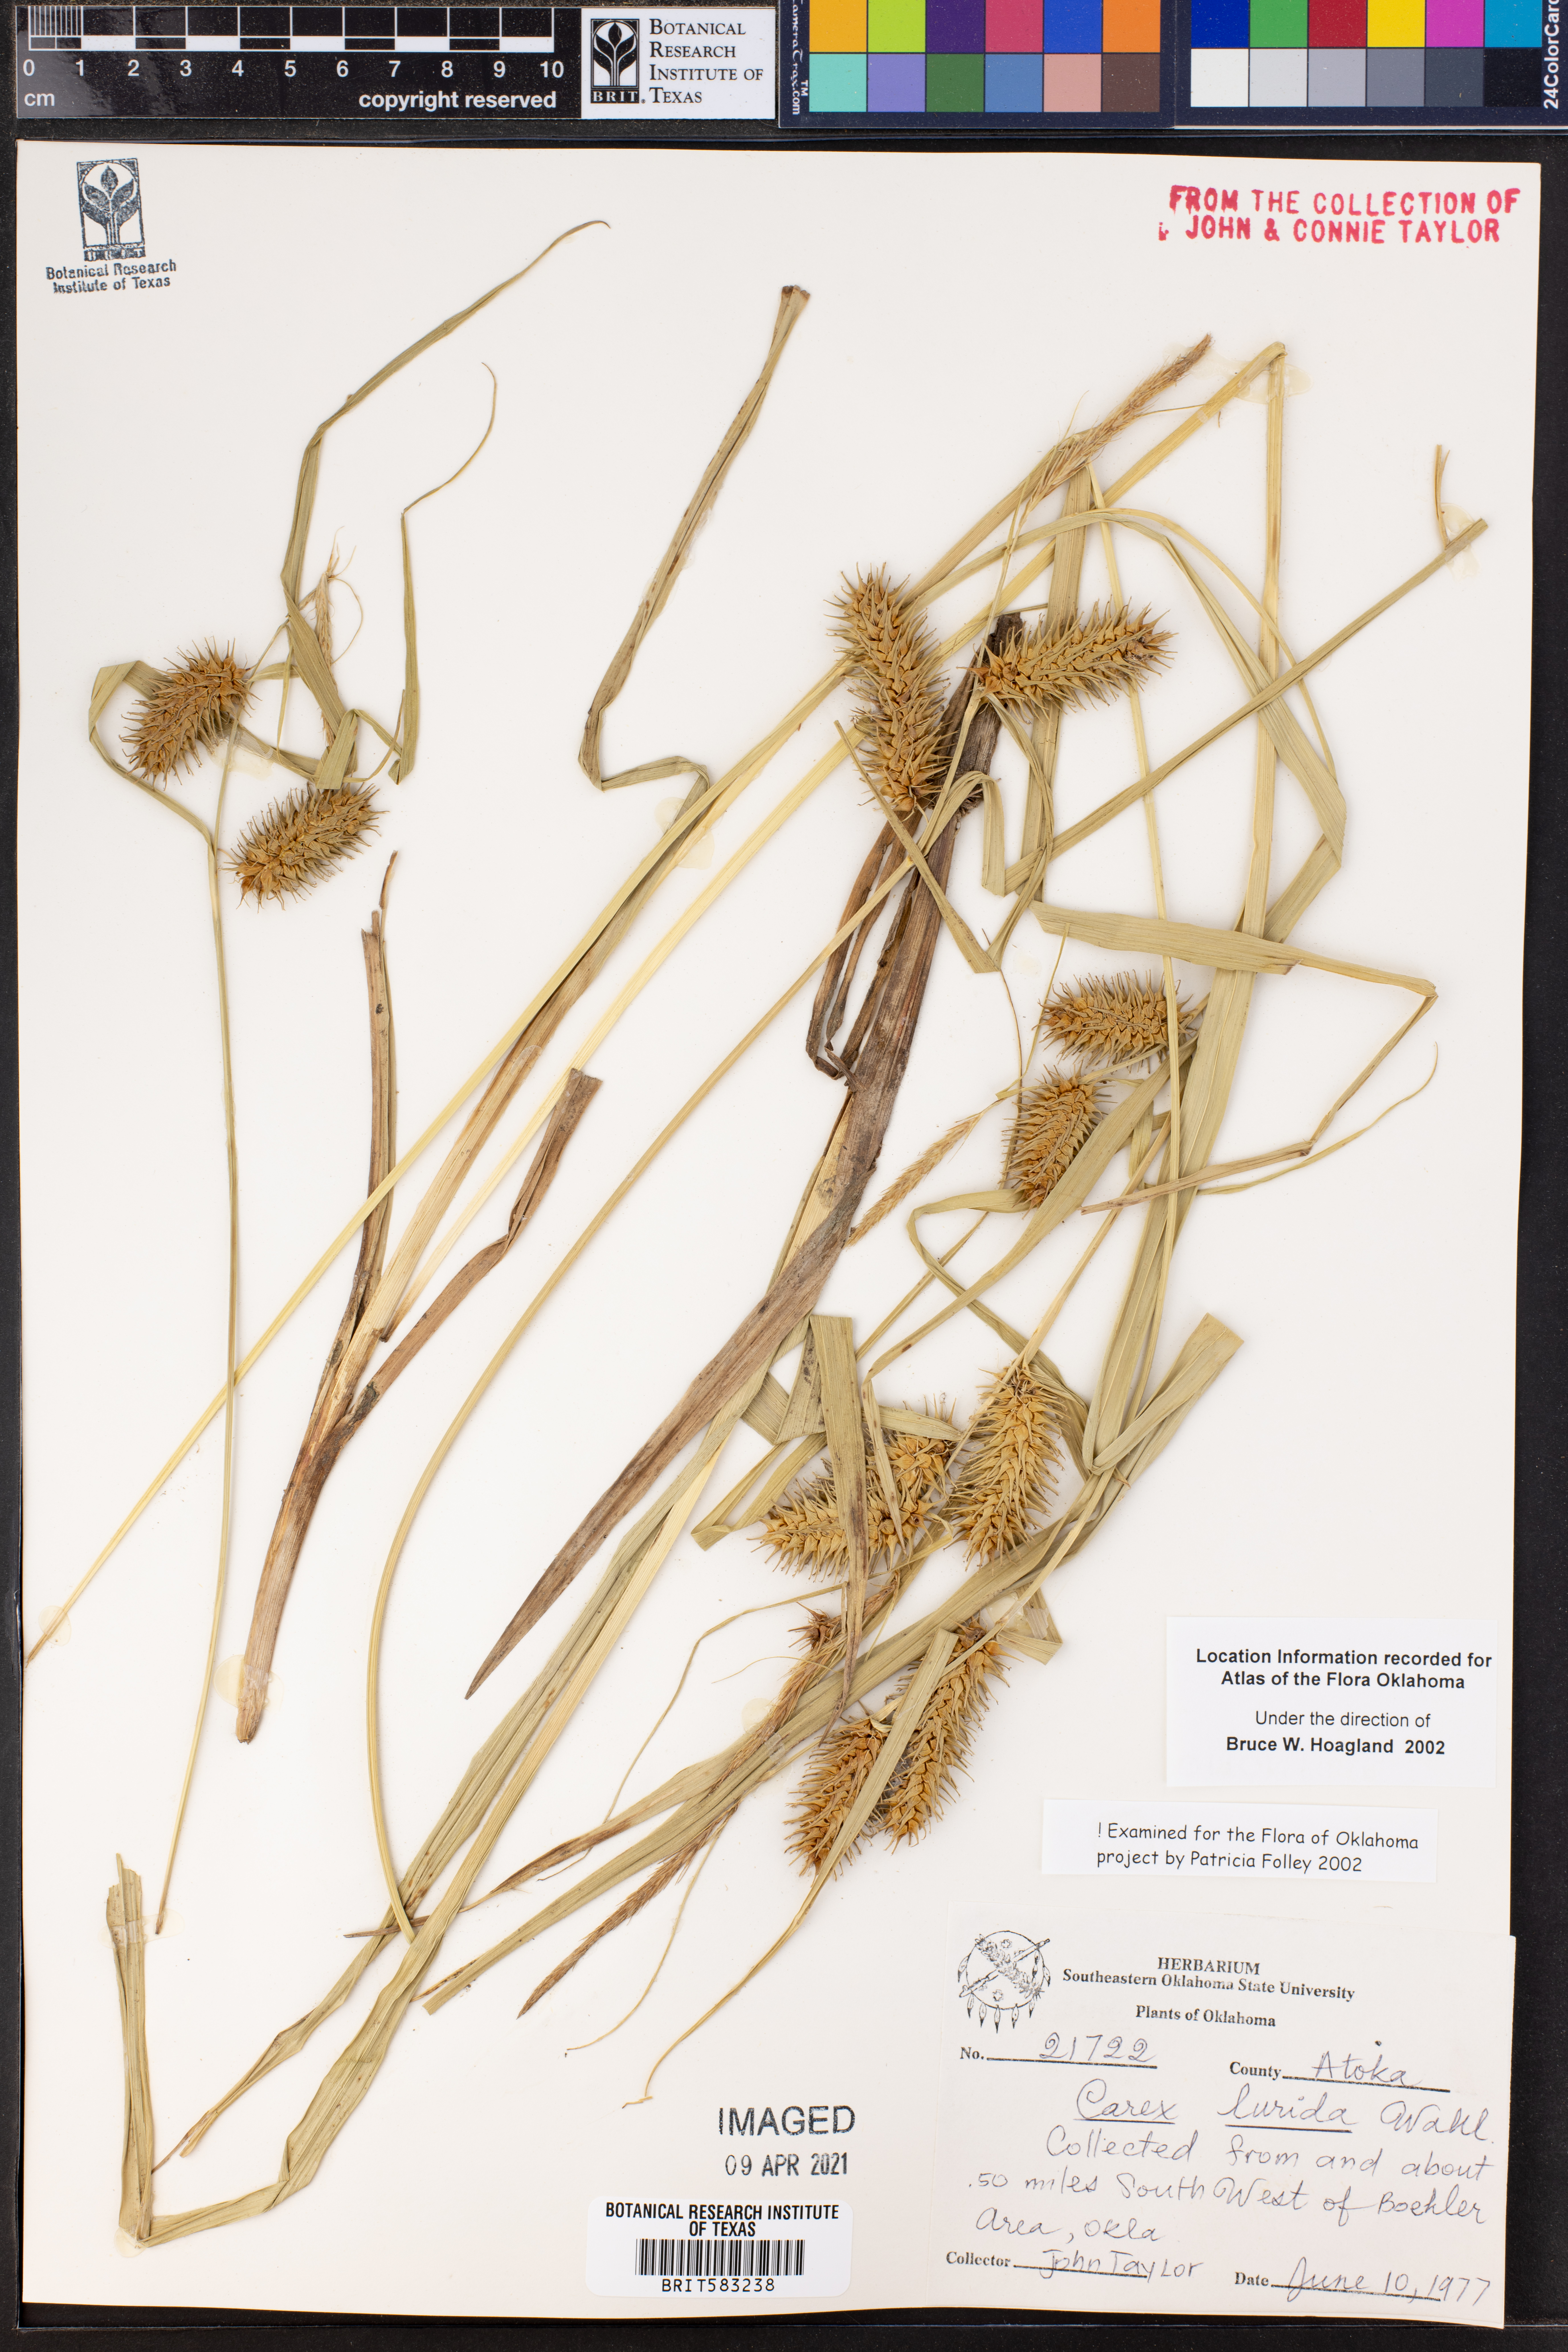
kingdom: Plantae
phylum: Tracheophyta
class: Liliopsida
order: Poales
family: Cyperaceae
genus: Carex
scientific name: Carex lurida
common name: Sallow sedge
